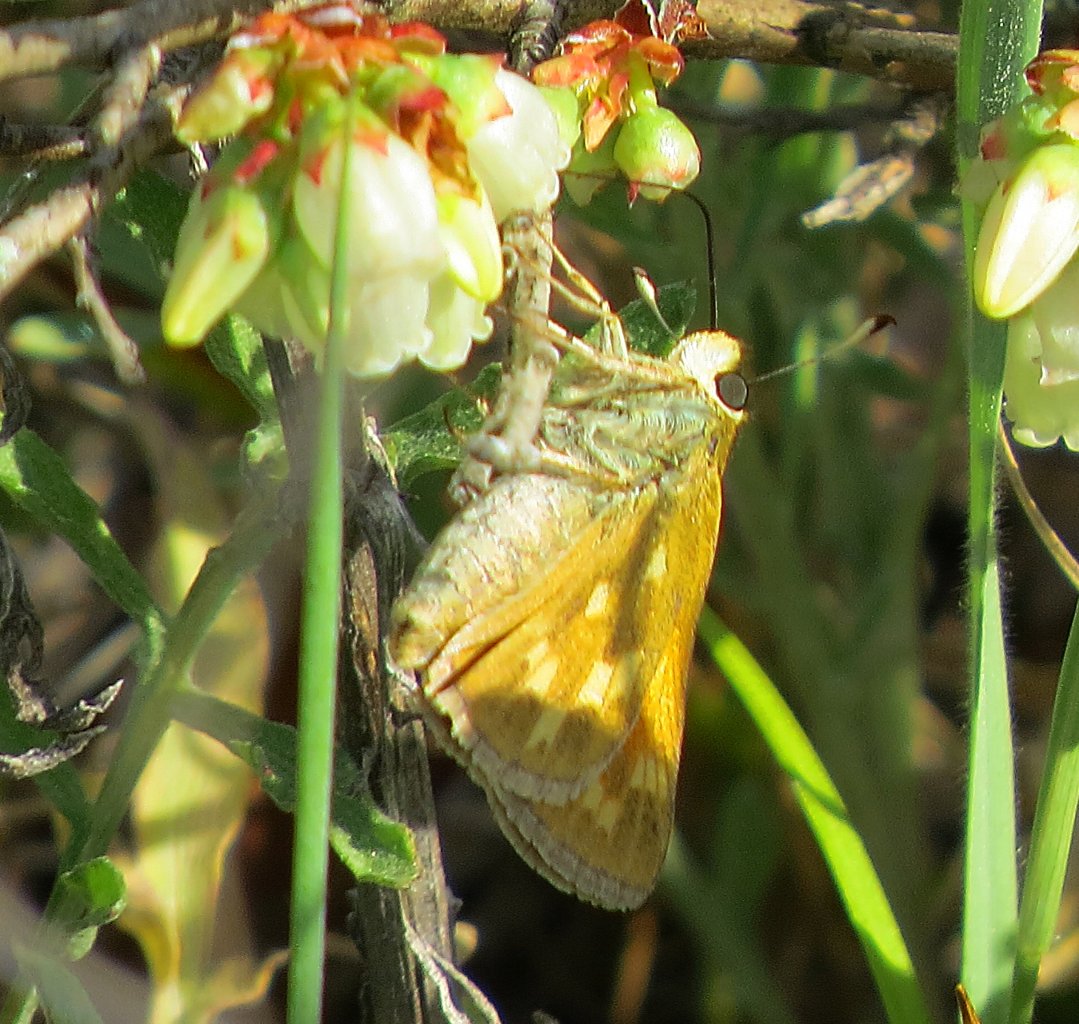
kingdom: Animalia
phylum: Arthropoda
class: Insecta
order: Lepidoptera
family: Hesperiidae
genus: Hesperia
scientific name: Hesperia sassacus
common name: Sassacus Skipper
